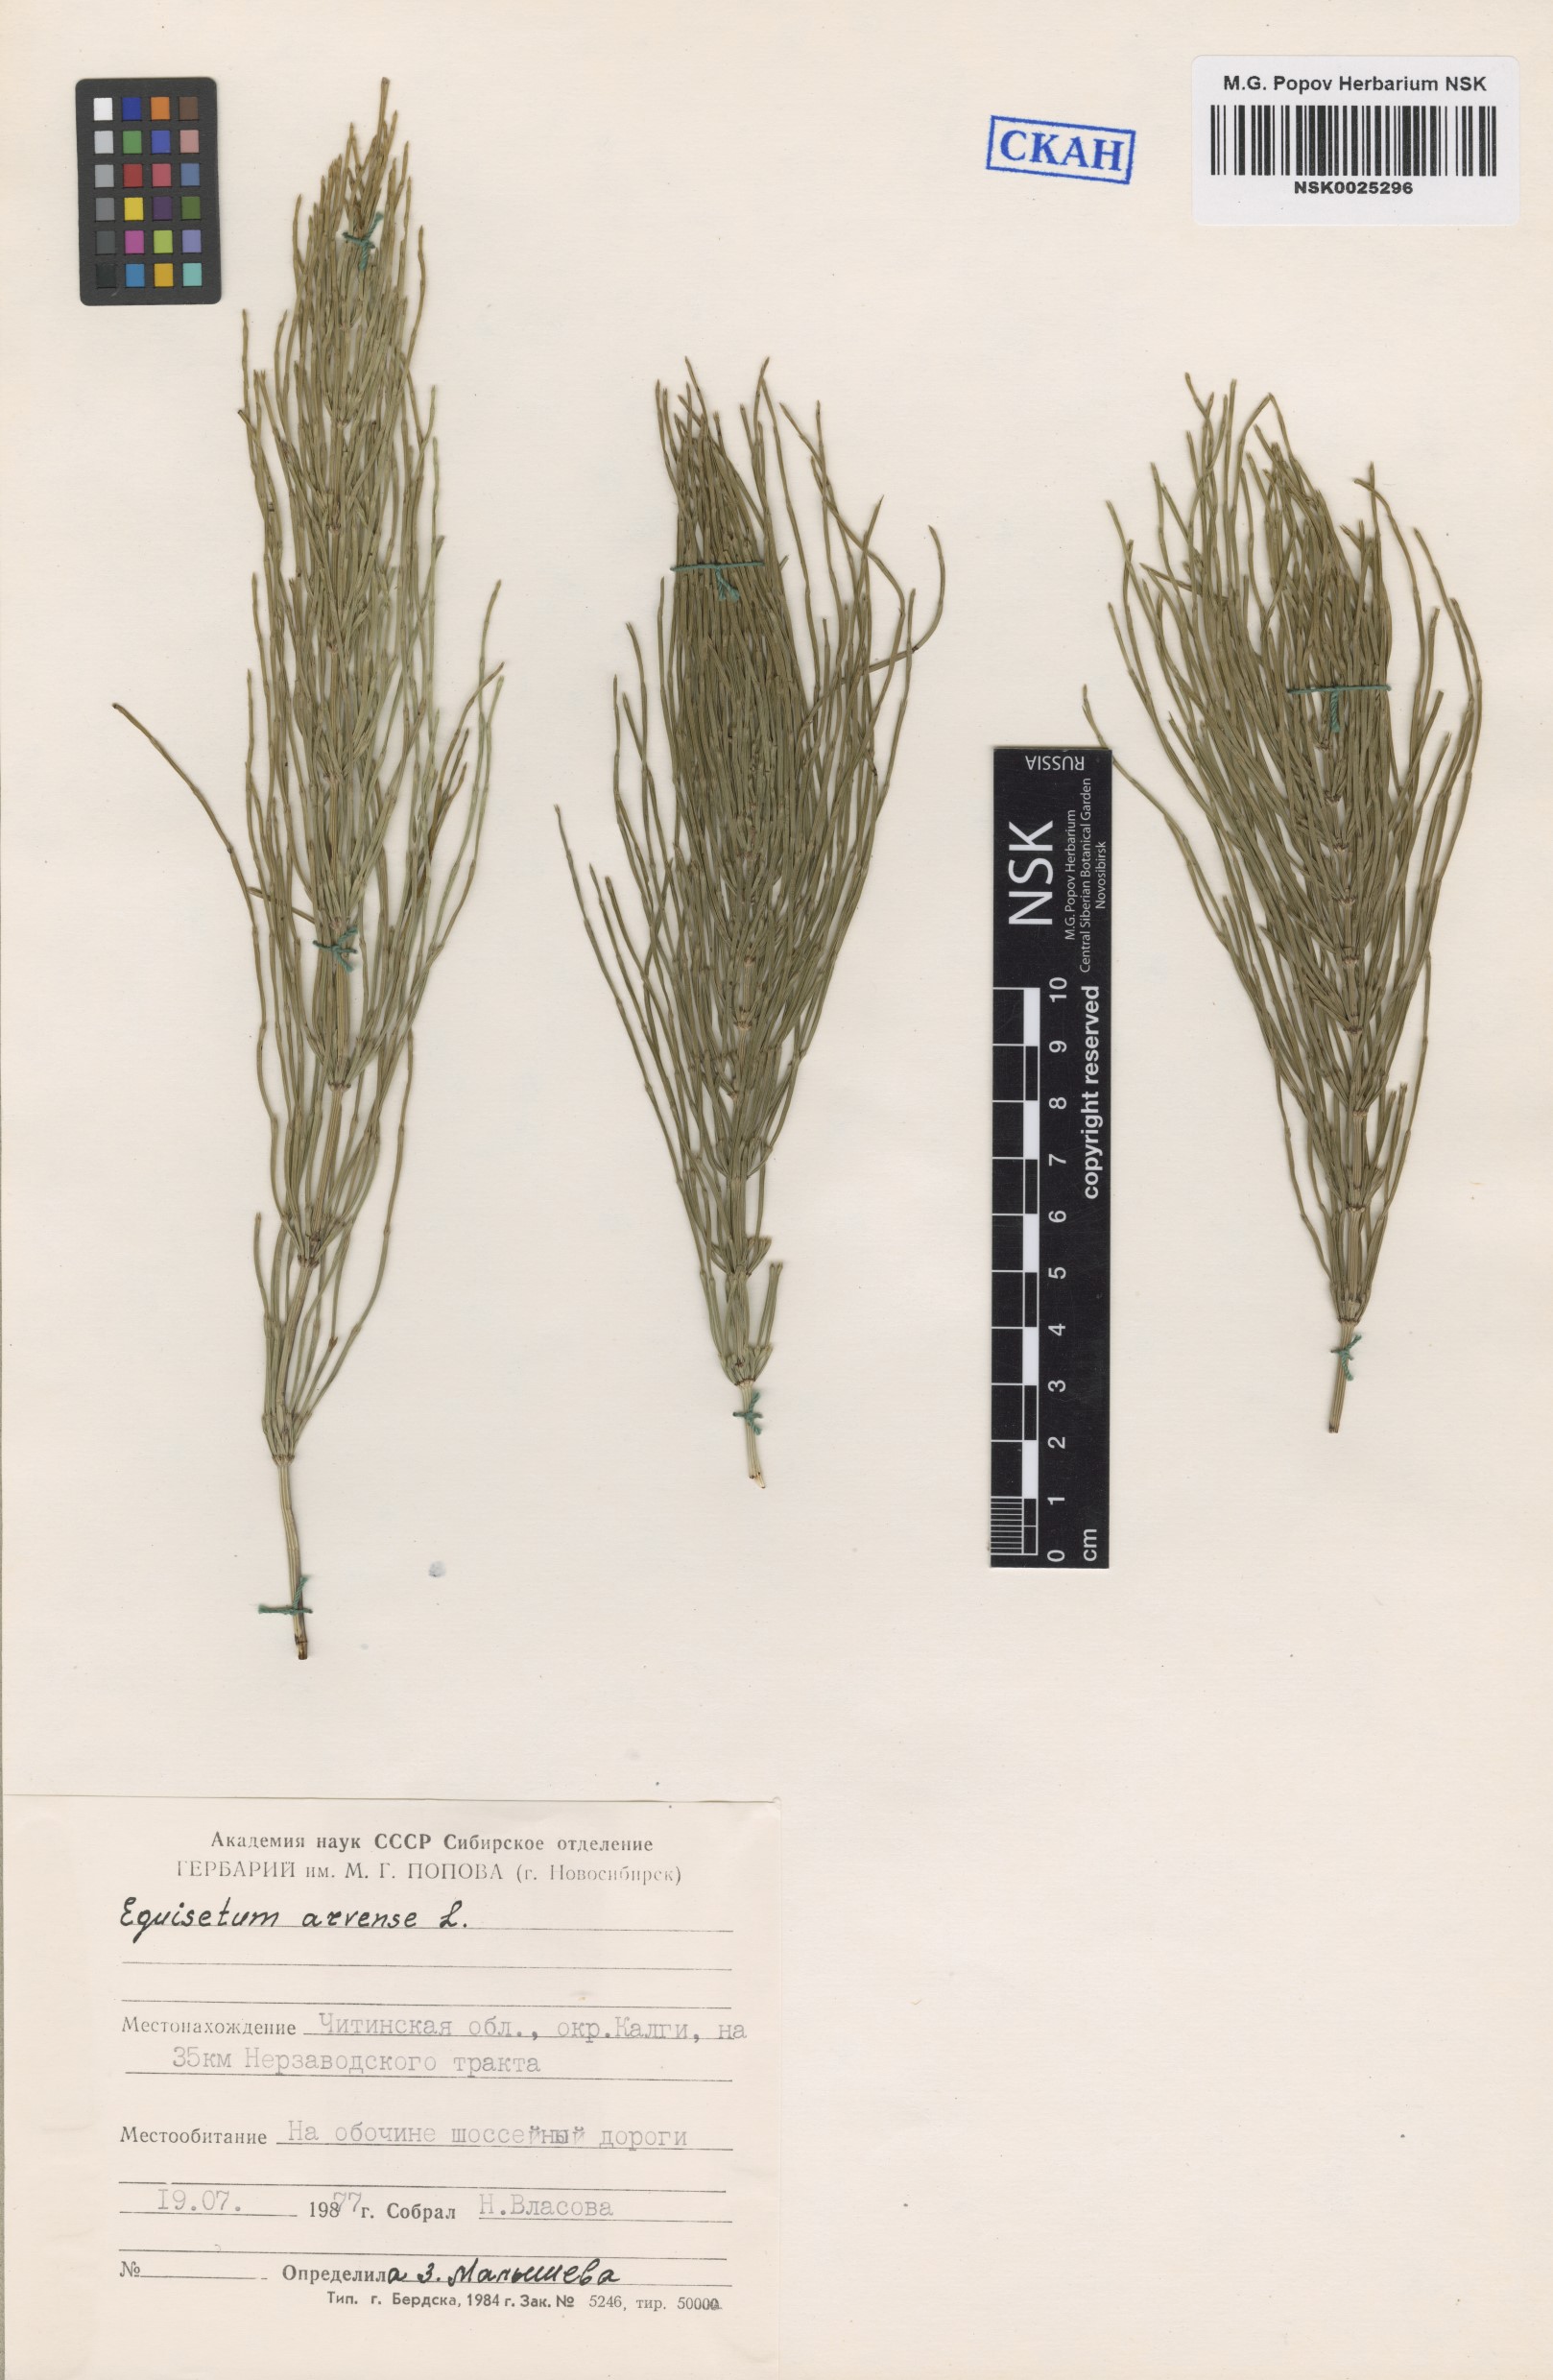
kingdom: Plantae
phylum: Tracheophyta
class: Polypodiopsida
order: Equisetales
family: Equisetaceae
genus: Equisetum
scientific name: Equisetum arvense
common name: Field horsetail
